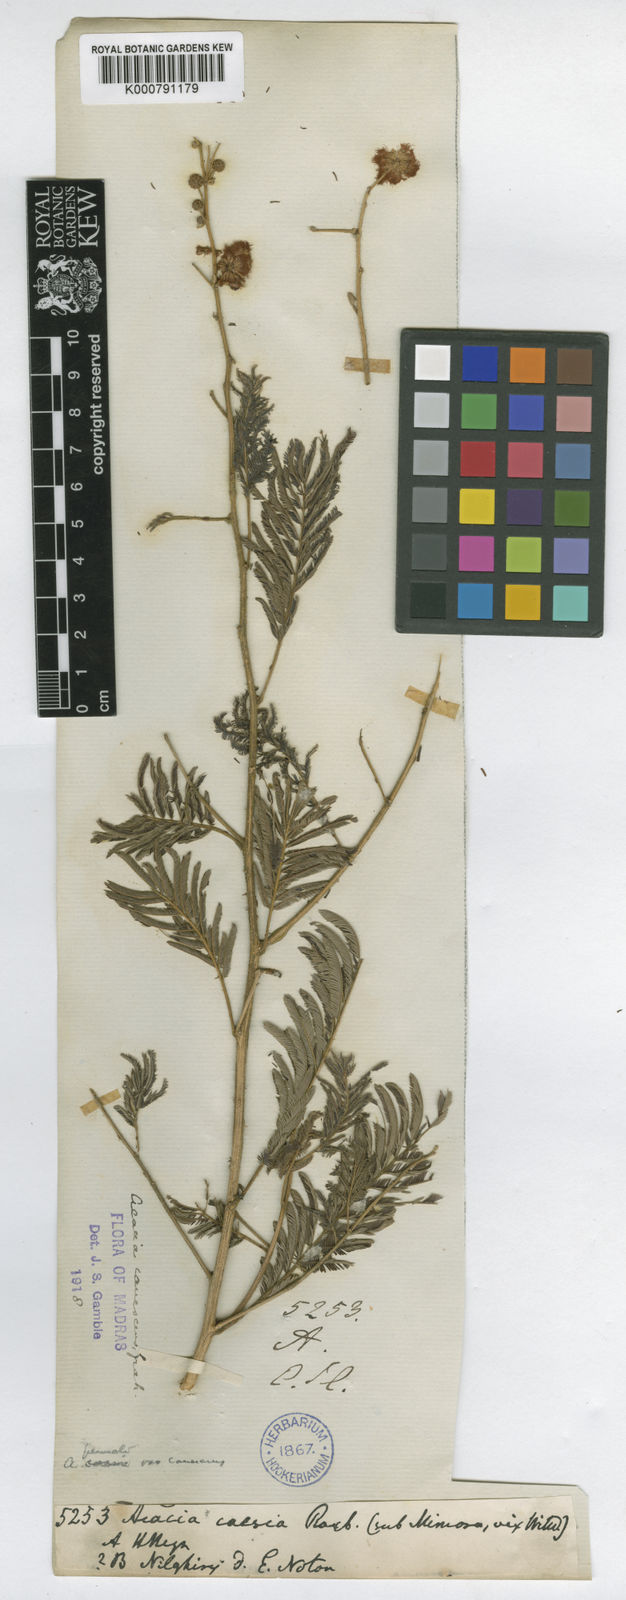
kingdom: Plantae
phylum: Tracheophyta
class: Magnoliopsida
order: Fabales
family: Fabaceae
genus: Senegalia
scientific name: Senegalia pennata
